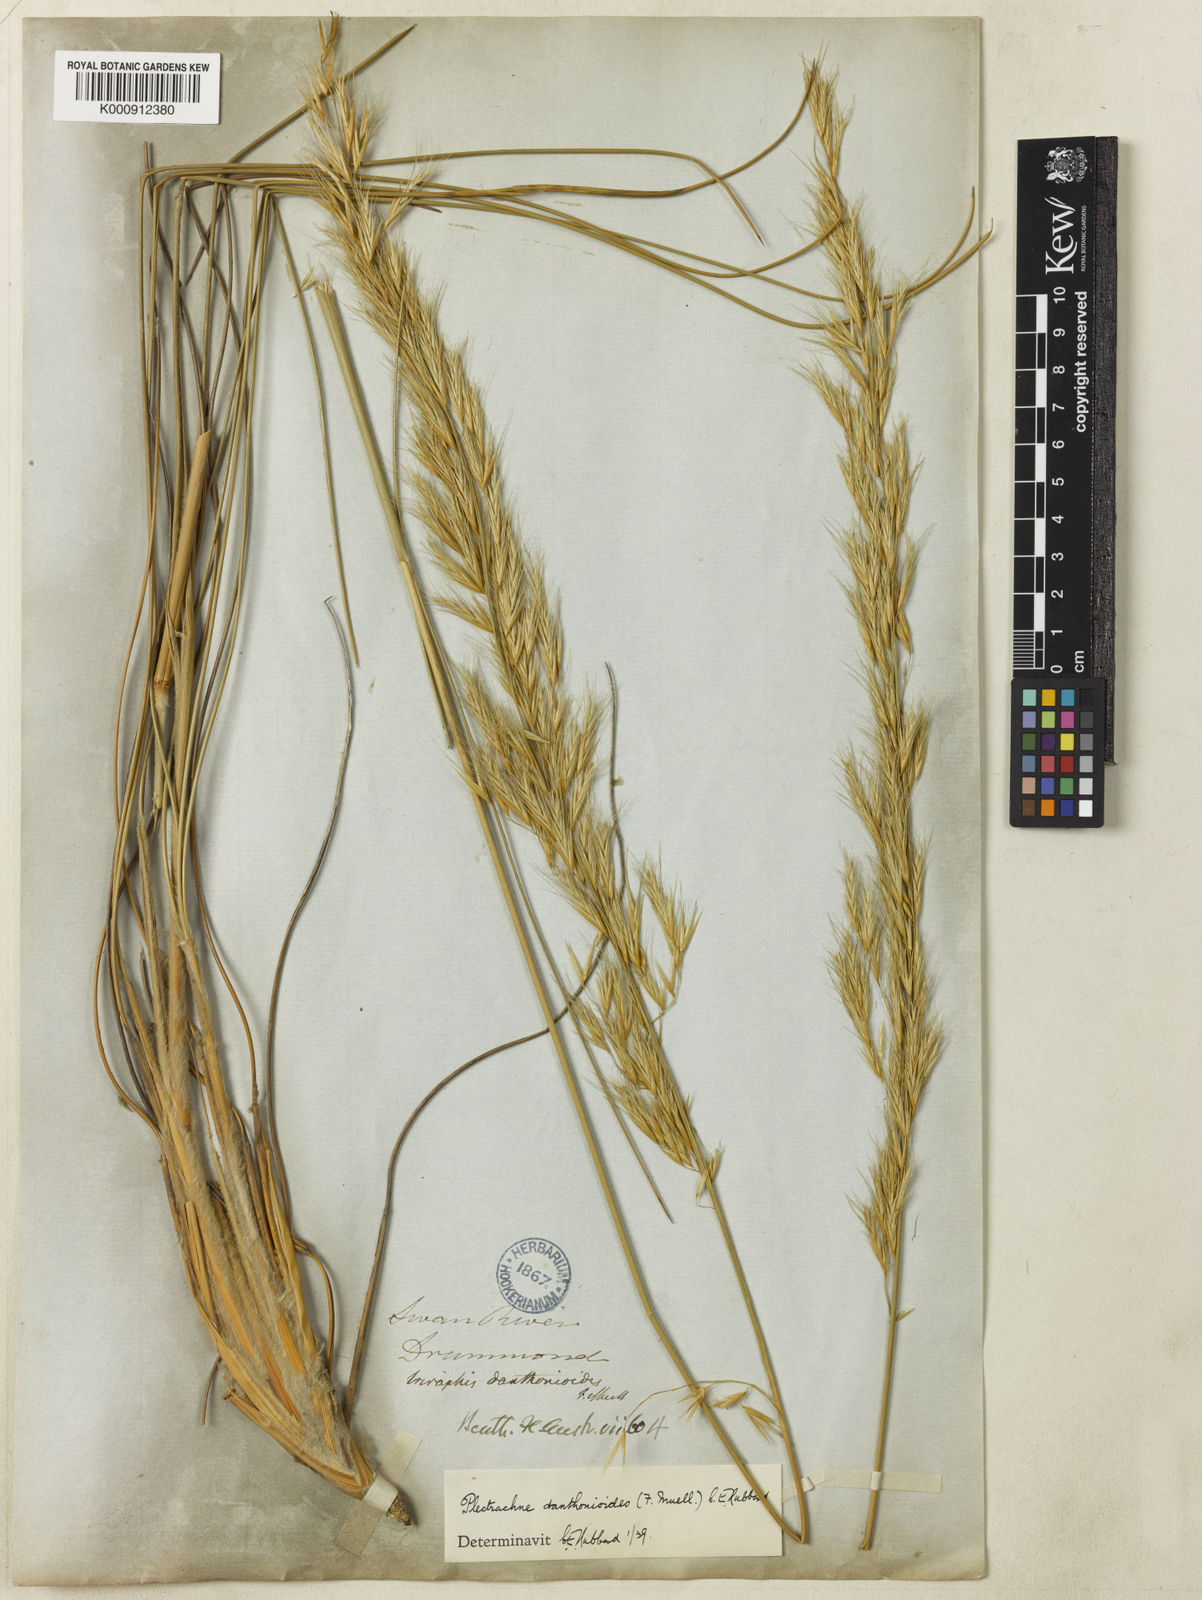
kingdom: Plantae
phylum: Tracheophyta
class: Liliopsida
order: Poales
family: Poaceae
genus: Triodia
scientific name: Triodia danthonioides
